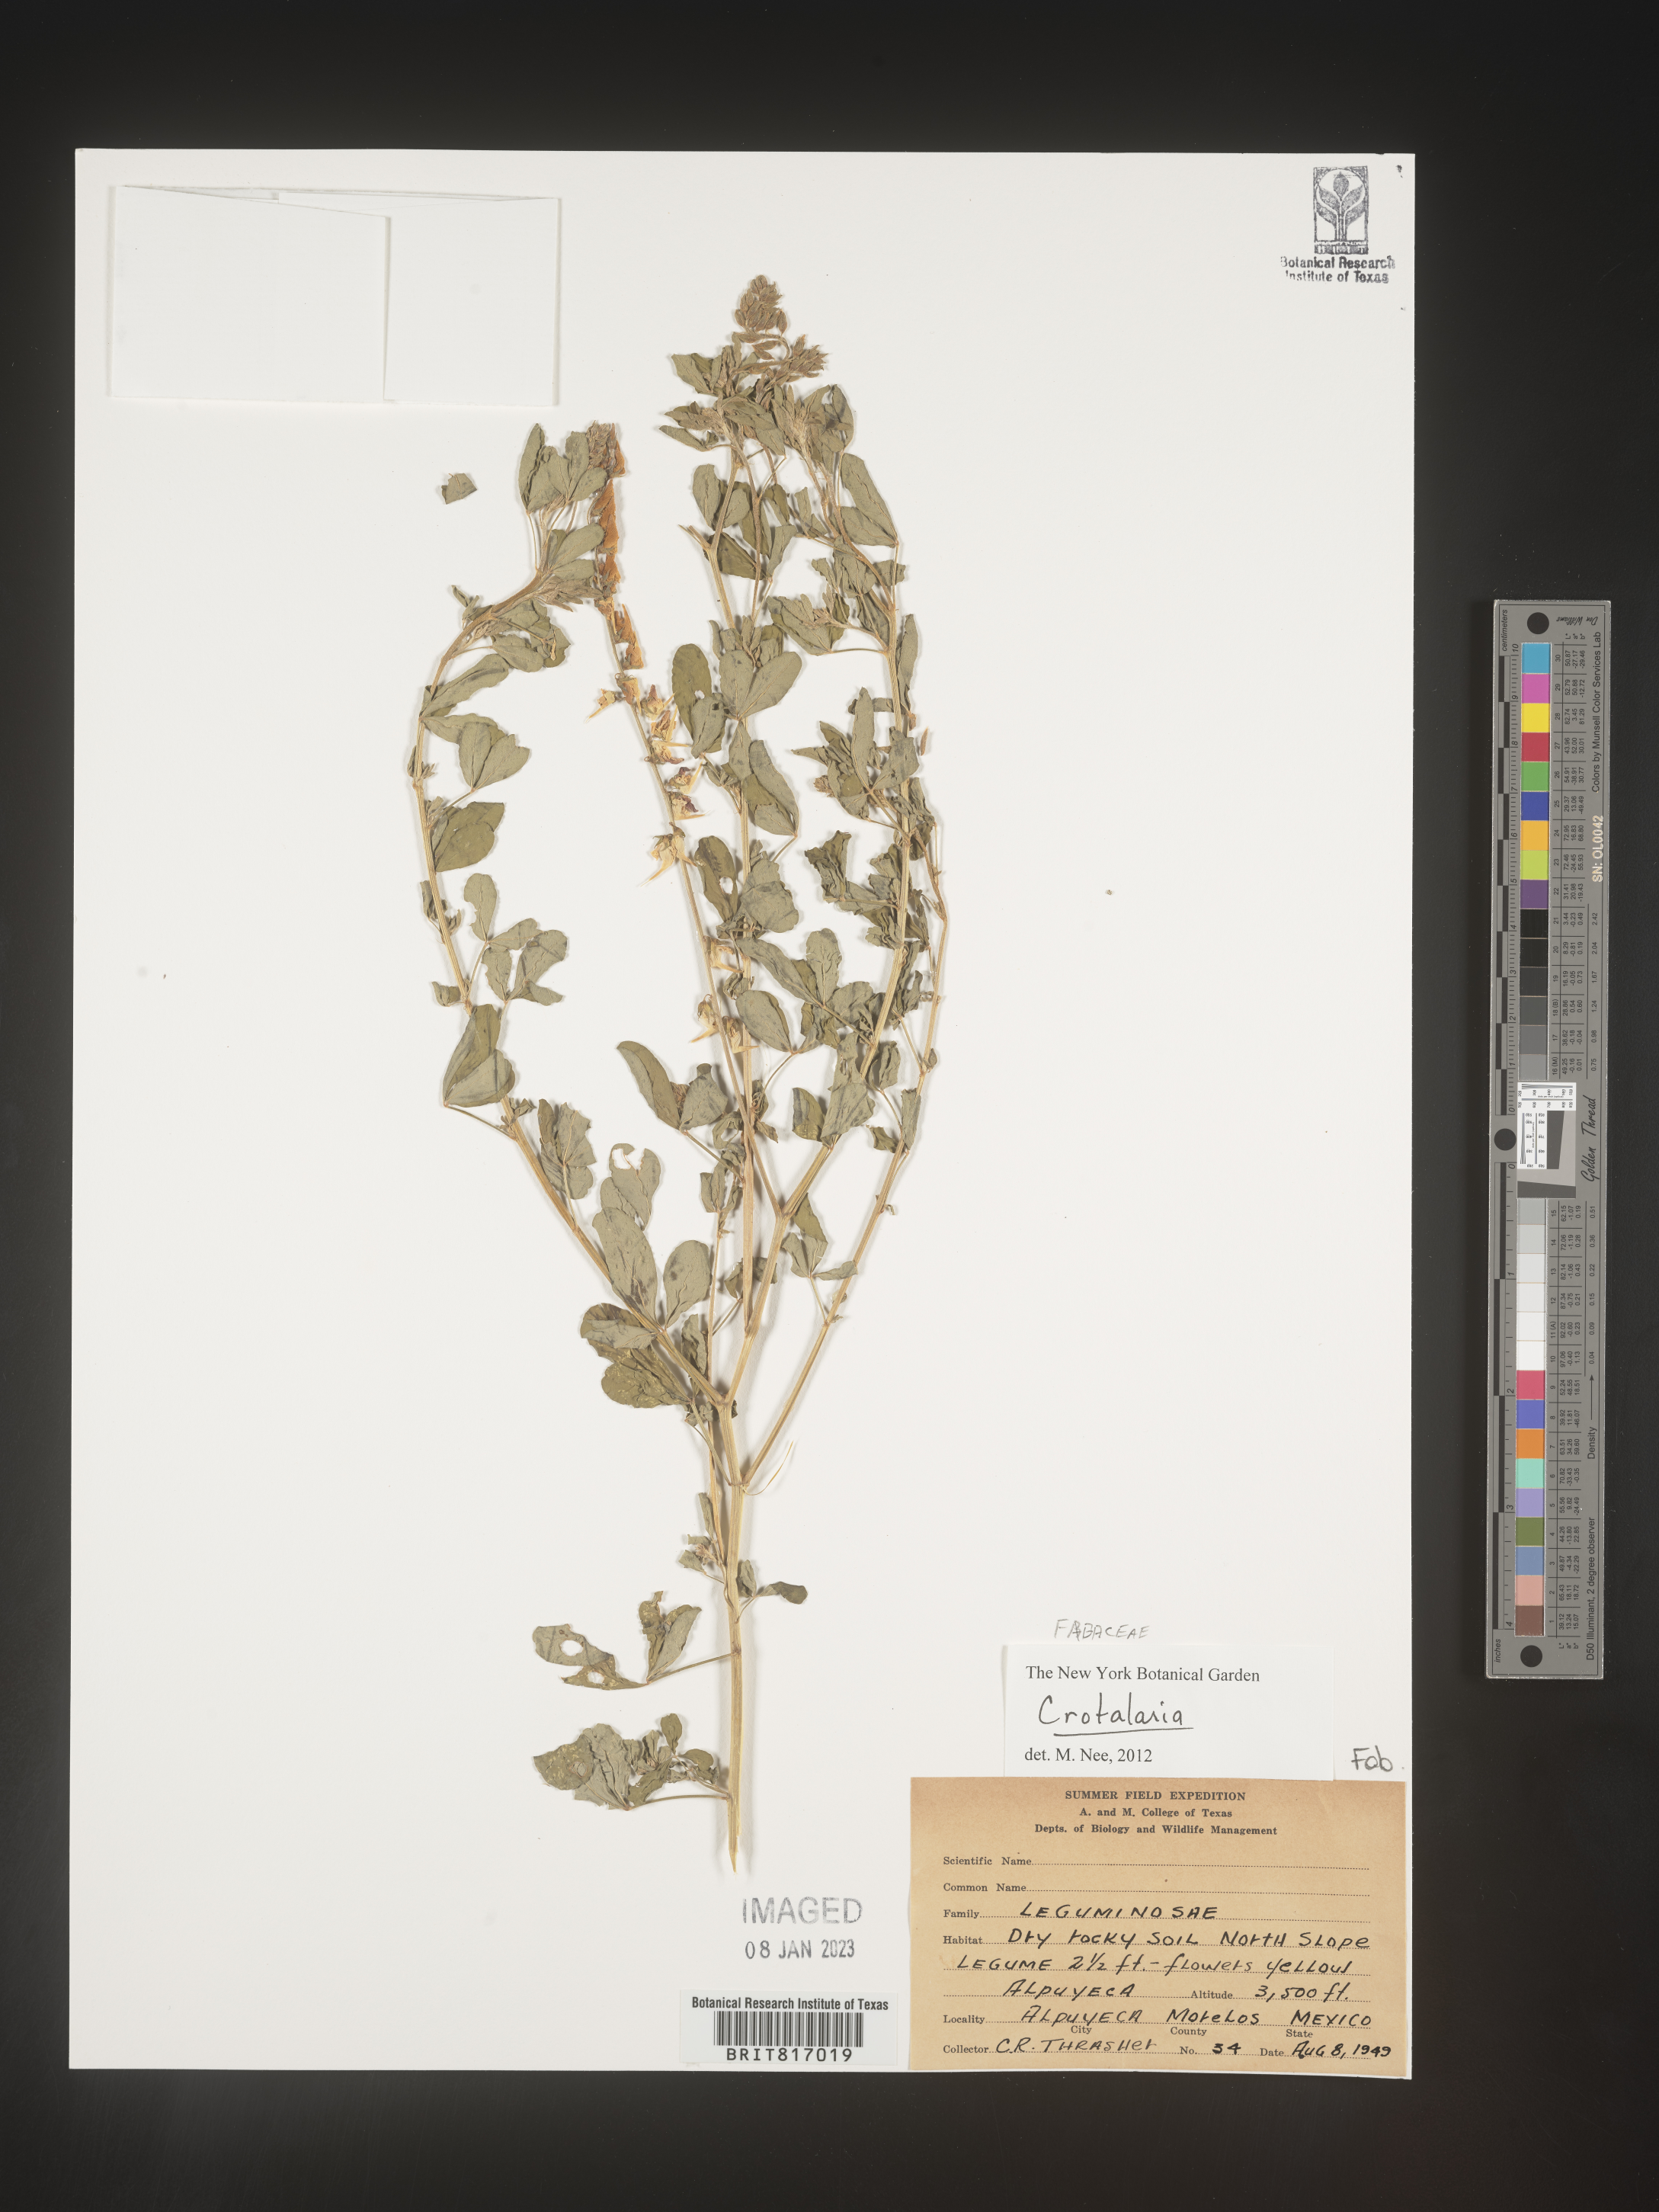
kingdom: Plantae
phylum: Tracheophyta
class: Magnoliopsida
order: Fabales
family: Fabaceae
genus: Crotalaria
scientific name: Crotalaria
